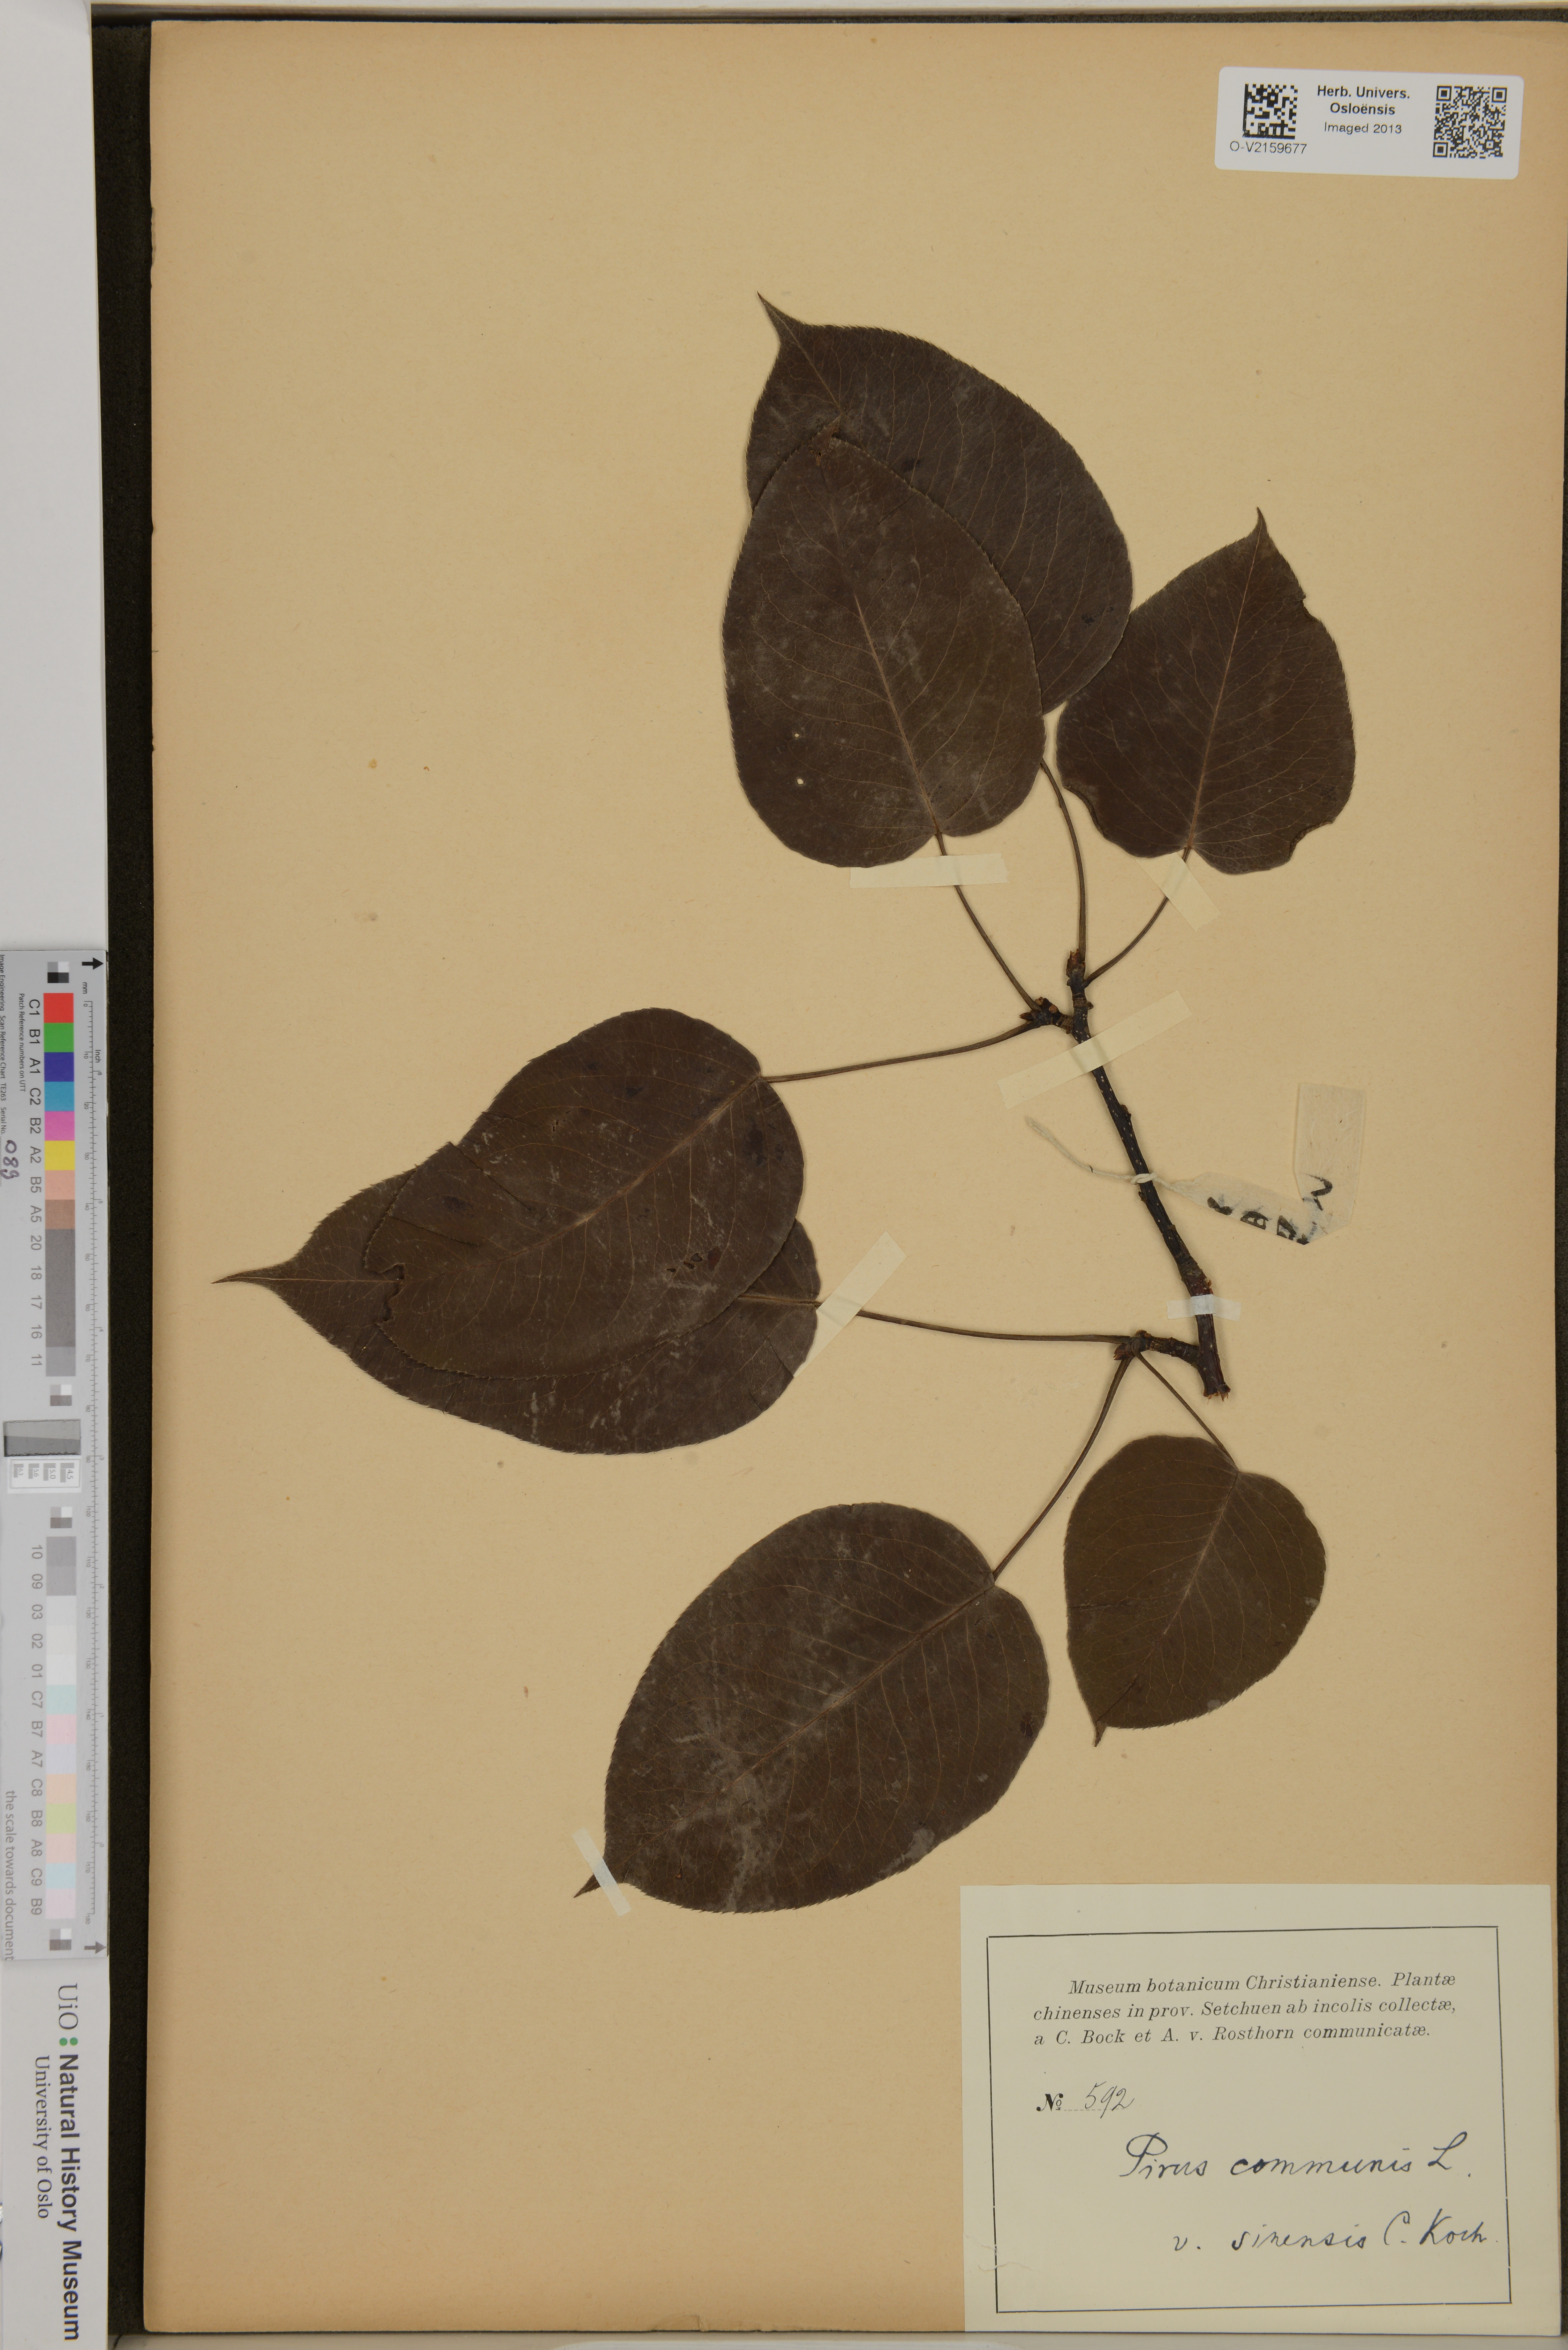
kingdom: Plantae
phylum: Tracheophyta
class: Magnoliopsida
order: Rosales
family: Rosaceae
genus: Pyrus
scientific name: Pyrus communis
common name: Pear
